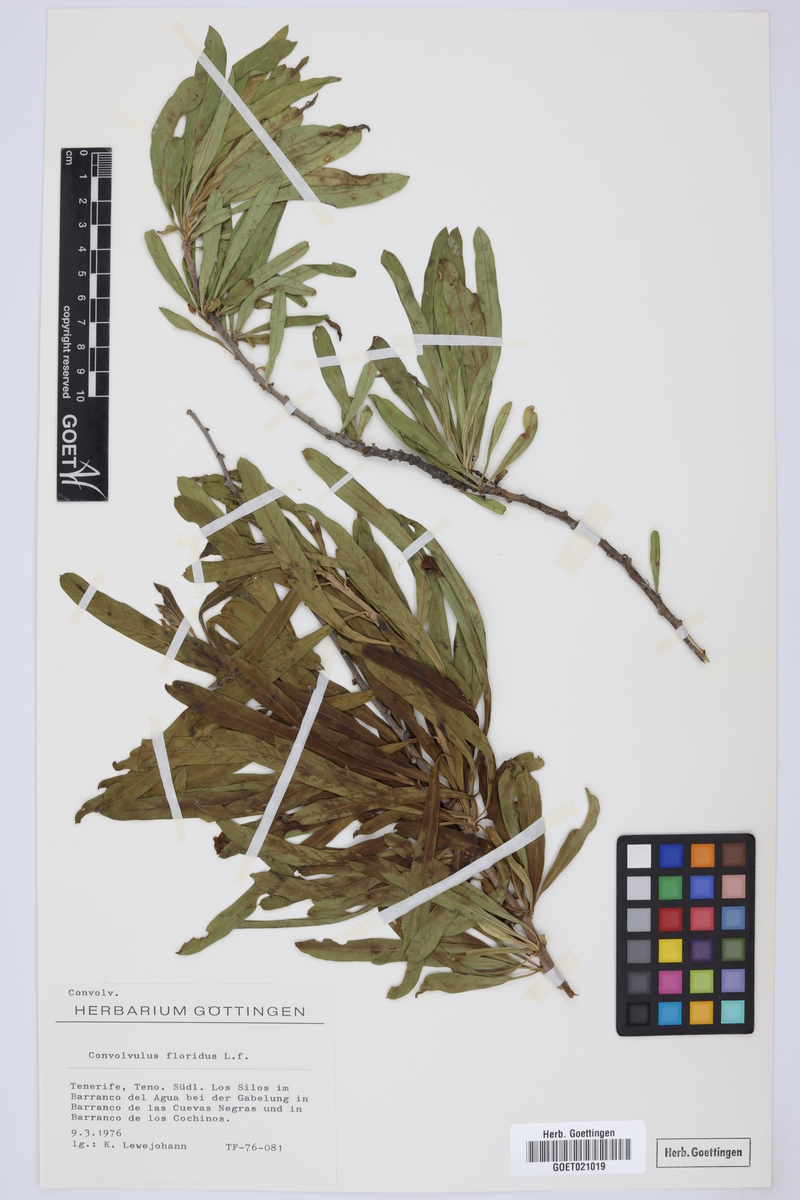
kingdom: Plantae
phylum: Tracheophyta
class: Magnoliopsida
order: Solanales
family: Convolvulaceae
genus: Convolvulus
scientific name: Convolvulus floridus
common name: Guadil
